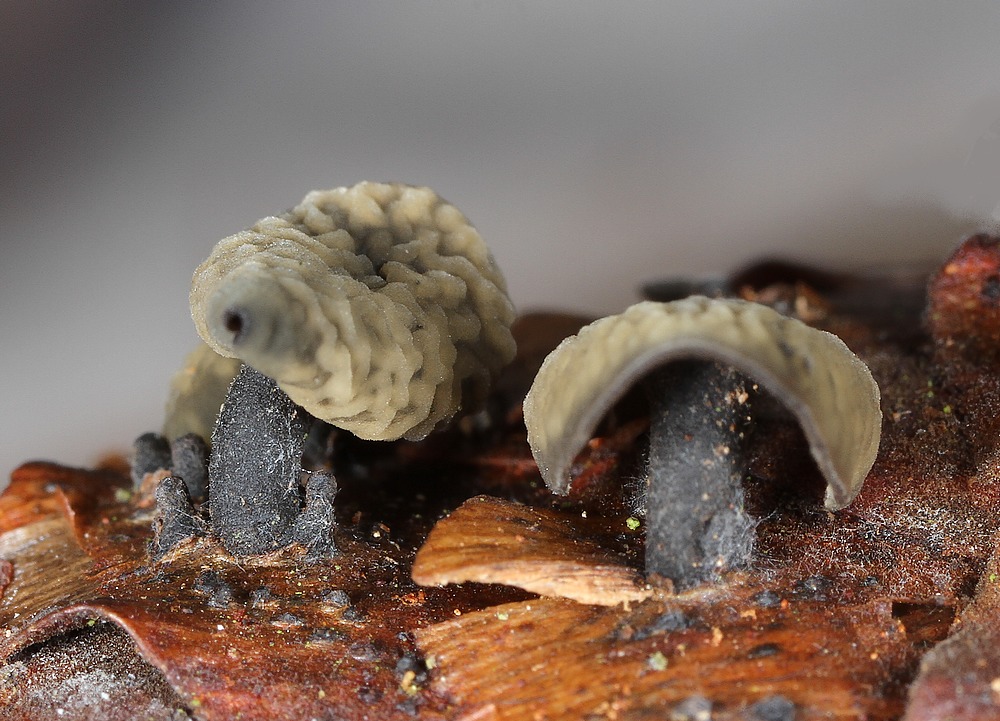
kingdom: Fungi
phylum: Ascomycota
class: Leotiomycetes
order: Helotiales
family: Rutstroemiaceae
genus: Rutstroemia
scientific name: Rutstroemia bulgarioides
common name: kogleskive
